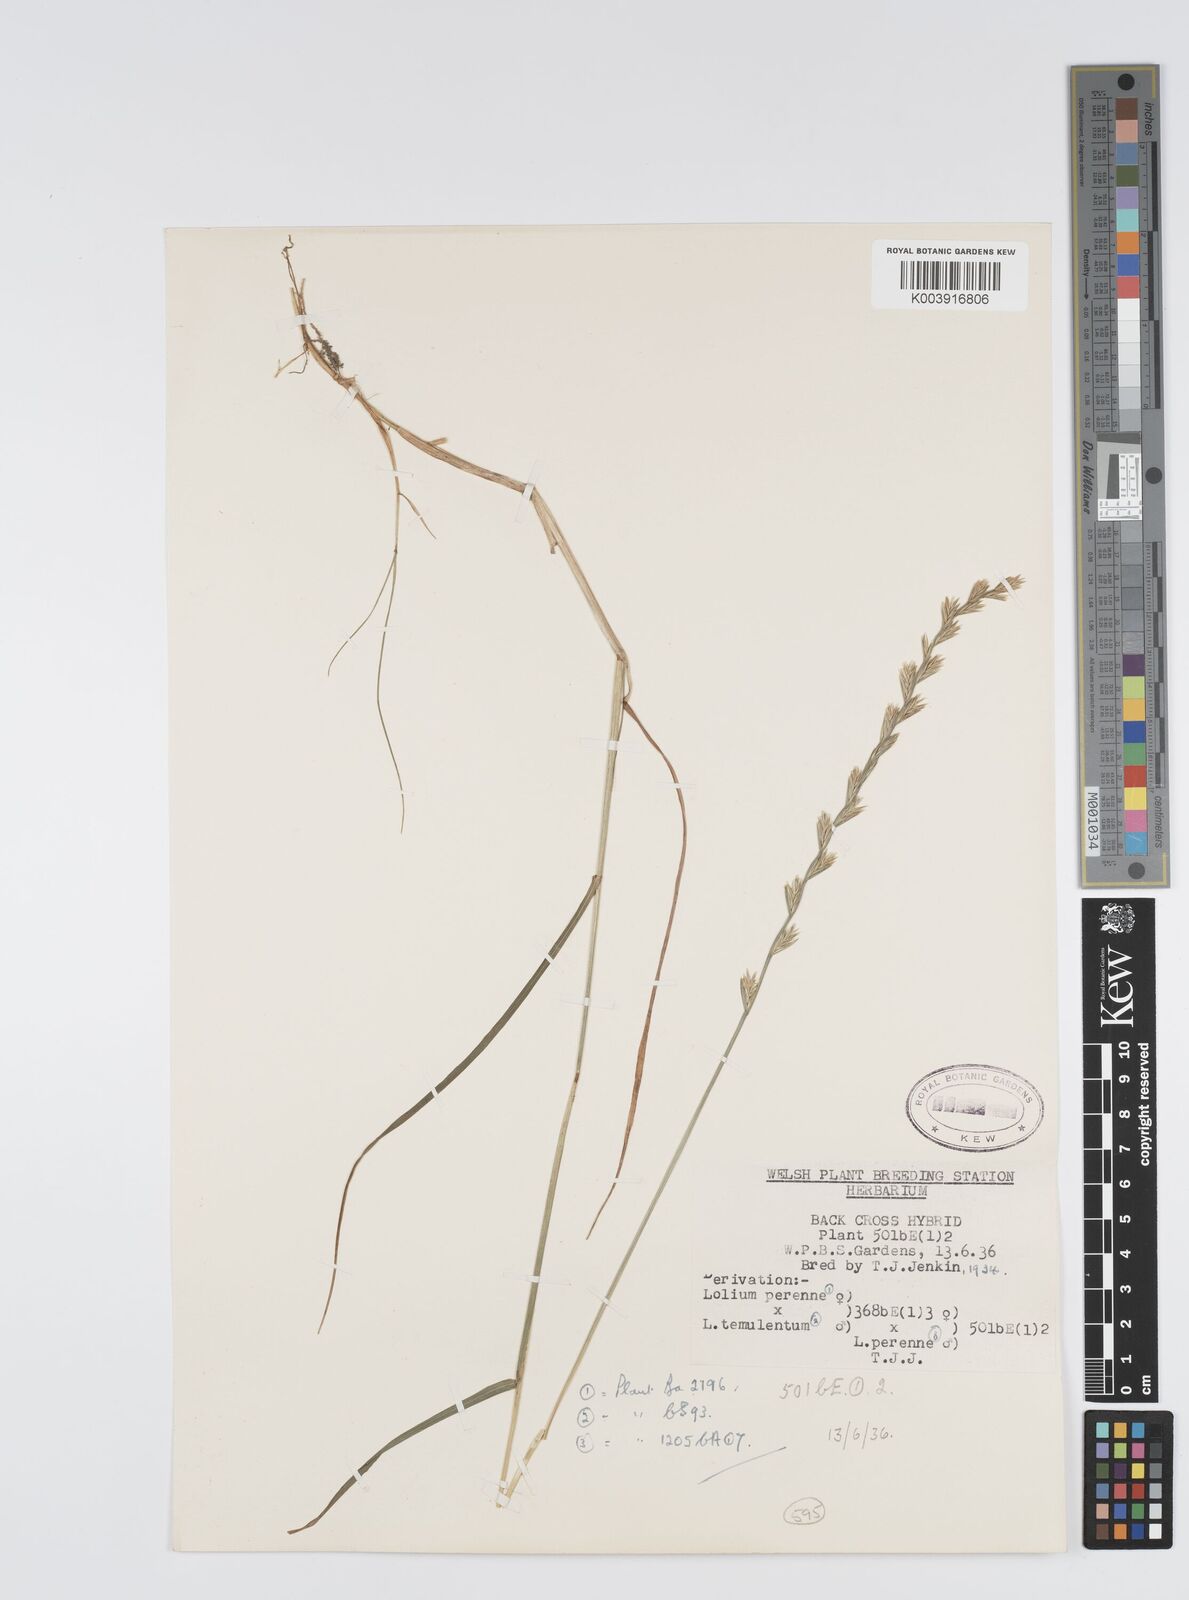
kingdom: Plantae
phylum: Tracheophyta
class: Liliopsida
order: Poales
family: Poaceae
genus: Lolium
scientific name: Lolium perenne
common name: Perennial ryegrass
